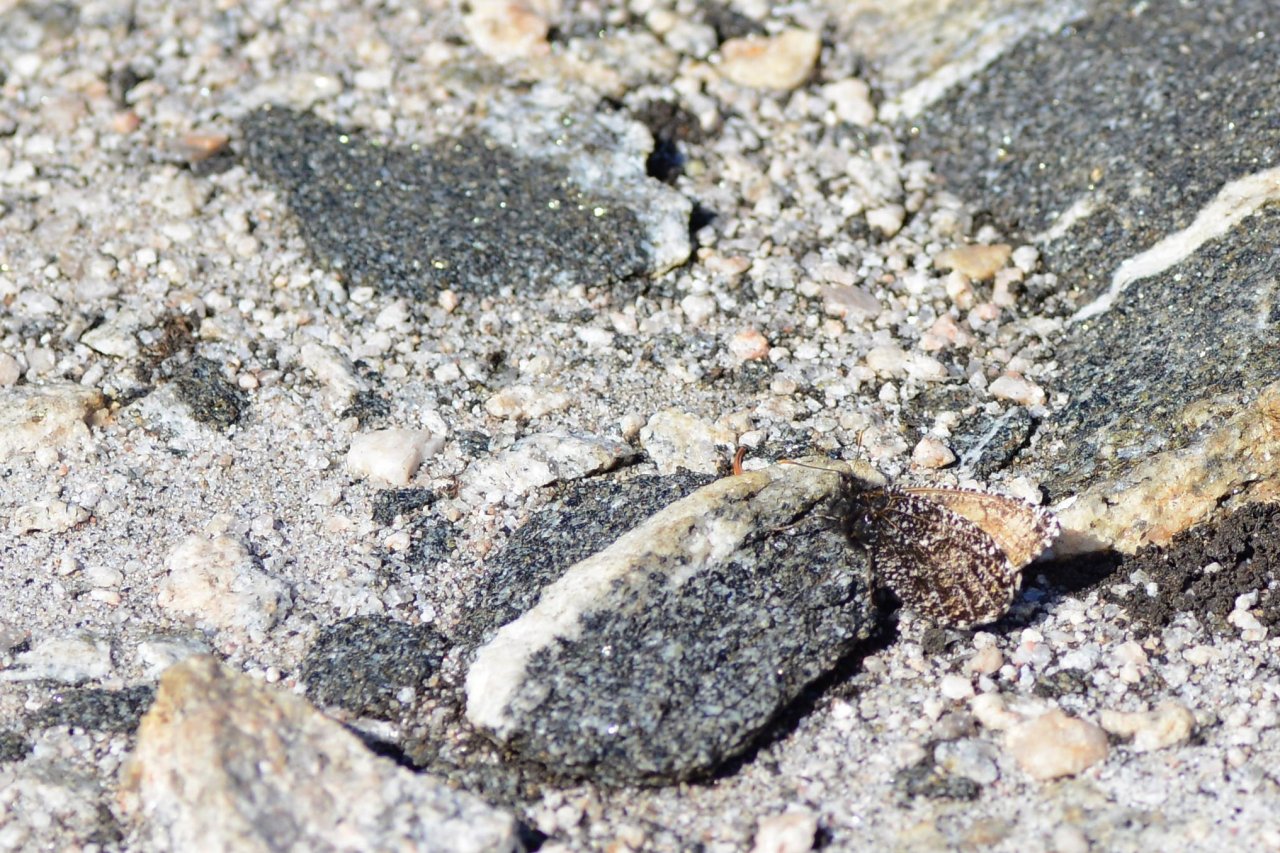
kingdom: Animalia
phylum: Arthropoda
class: Insecta
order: Lepidoptera
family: Nymphalidae
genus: Oeneis
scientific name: Oeneis melissa
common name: Melissa Arctic
